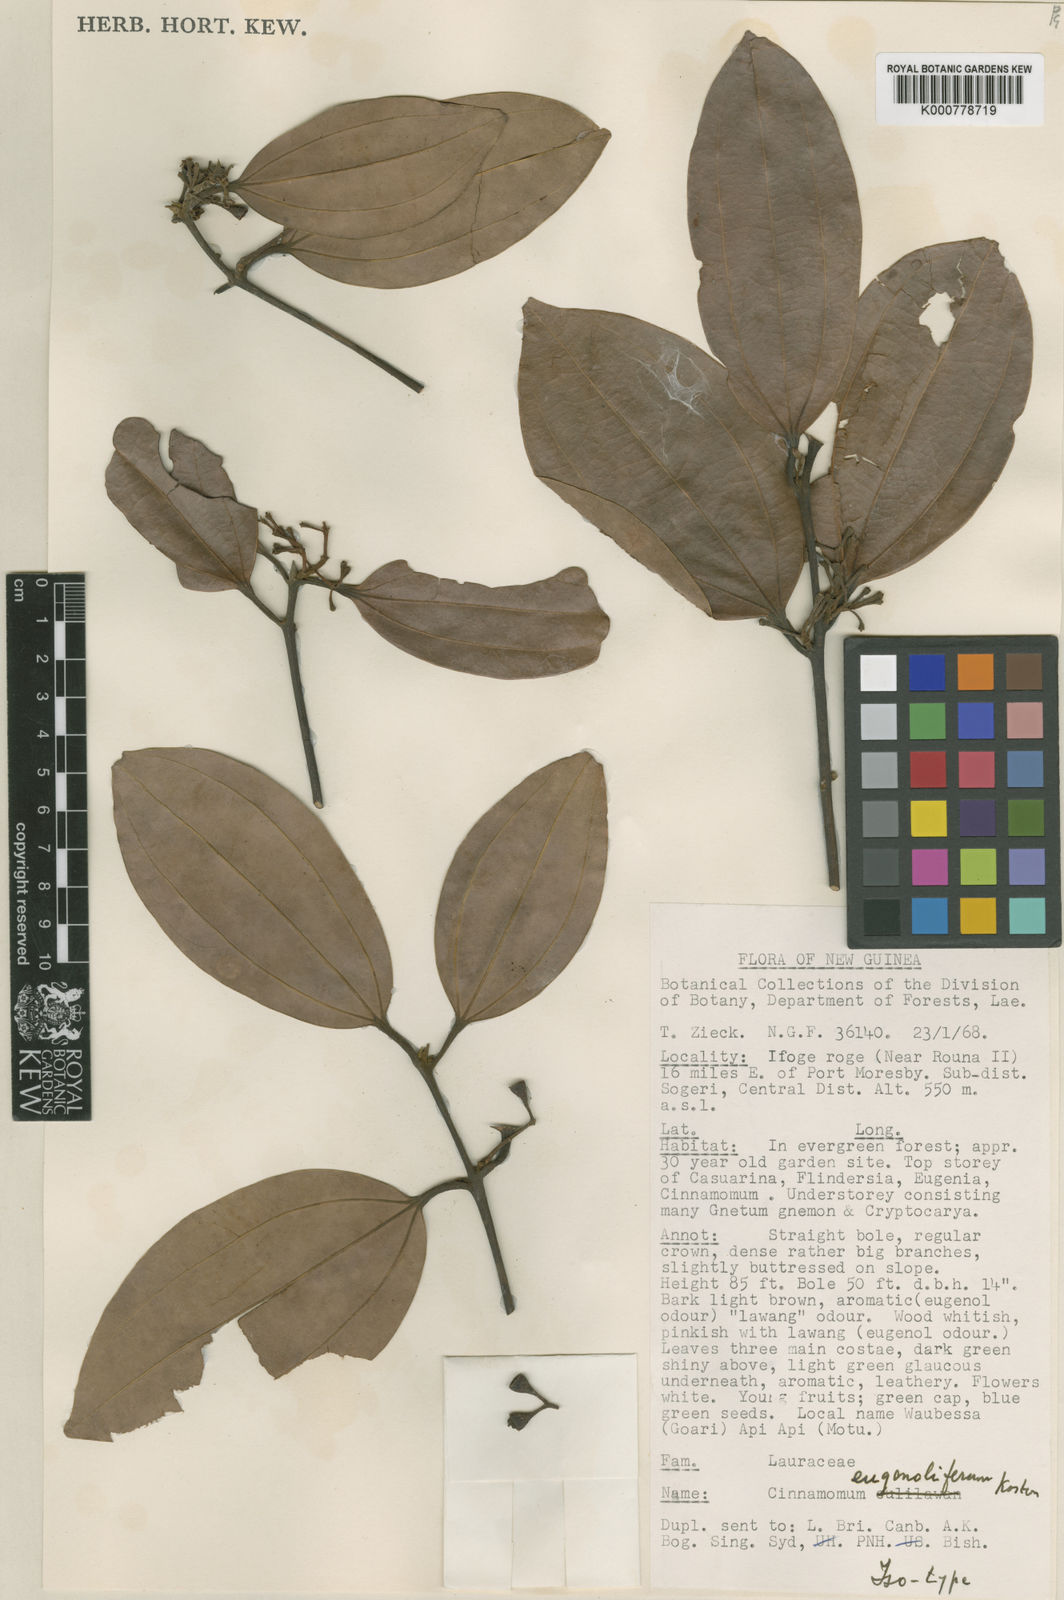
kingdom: Plantae
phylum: Tracheophyta
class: Magnoliopsida
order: Laurales
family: Lauraceae
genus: Cinnamomum
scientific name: Cinnamomum eugenoliferum
